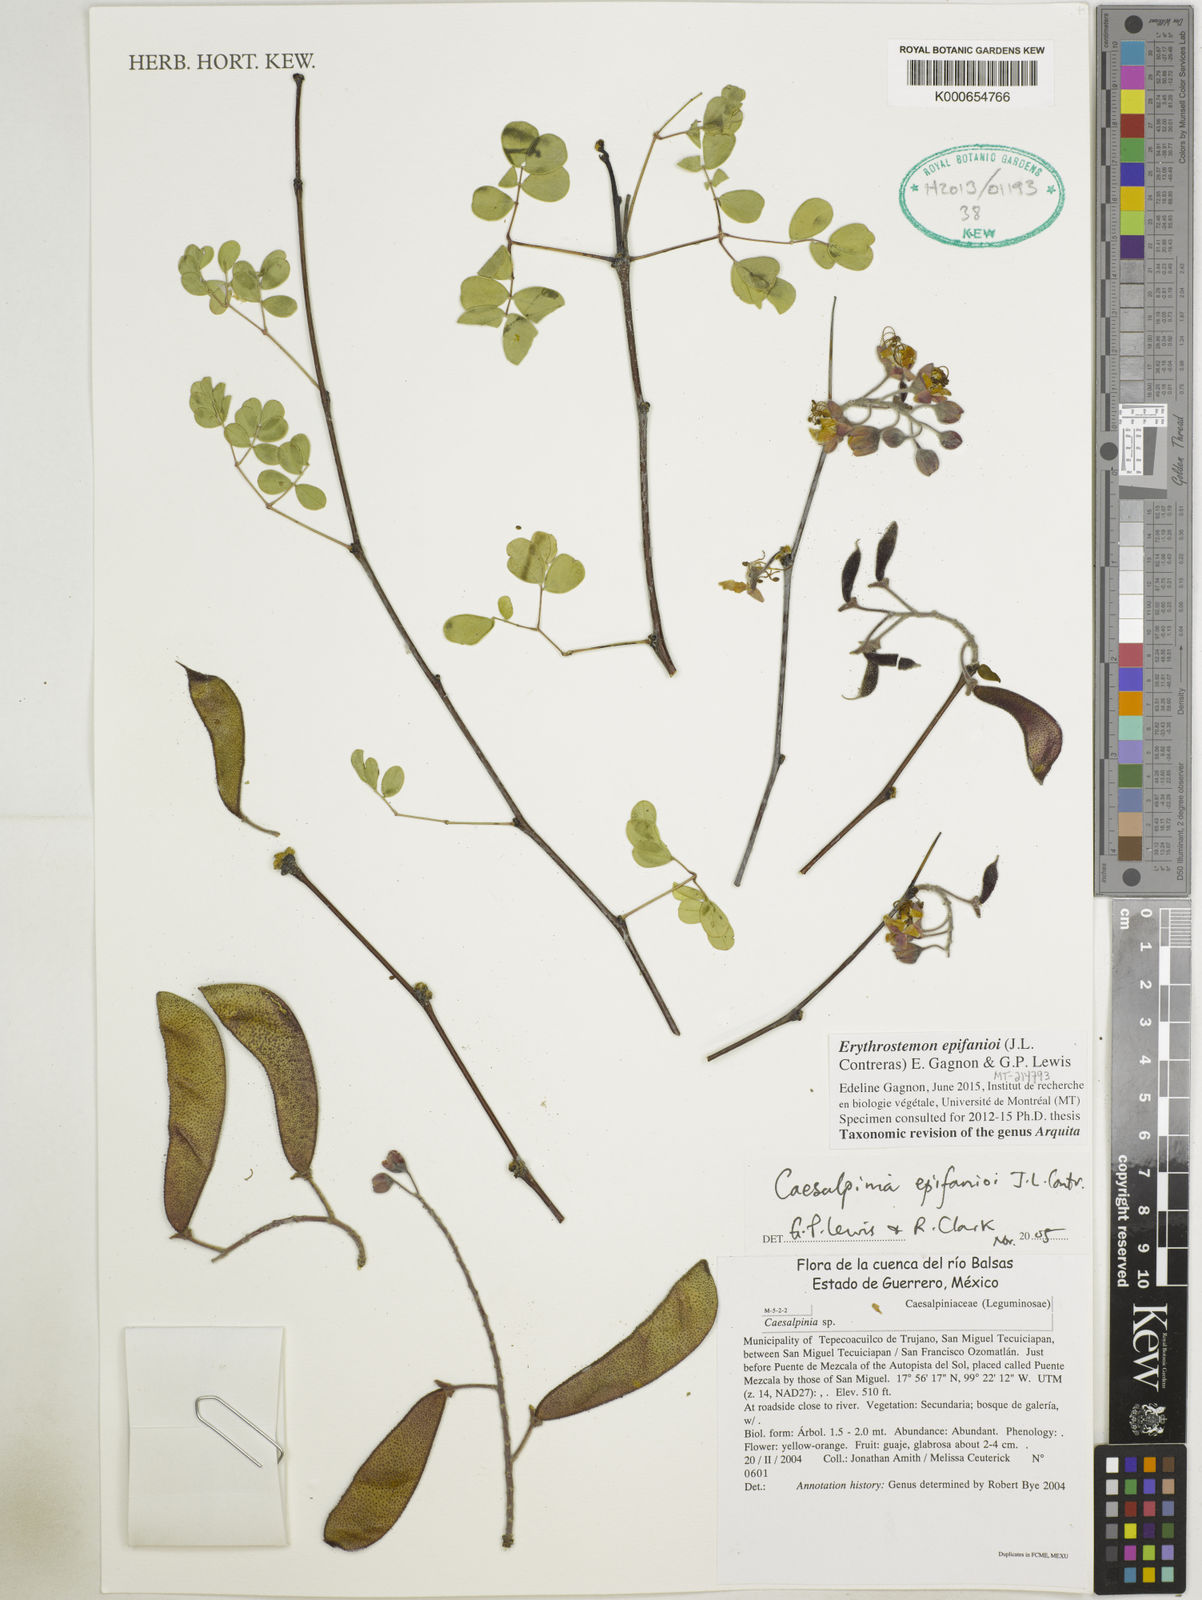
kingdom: Plantae
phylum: Tracheophyta
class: Magnoliopsida
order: Fabales
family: Fabaceae
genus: Erythrostemon
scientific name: Erythrostemon epifanioi
